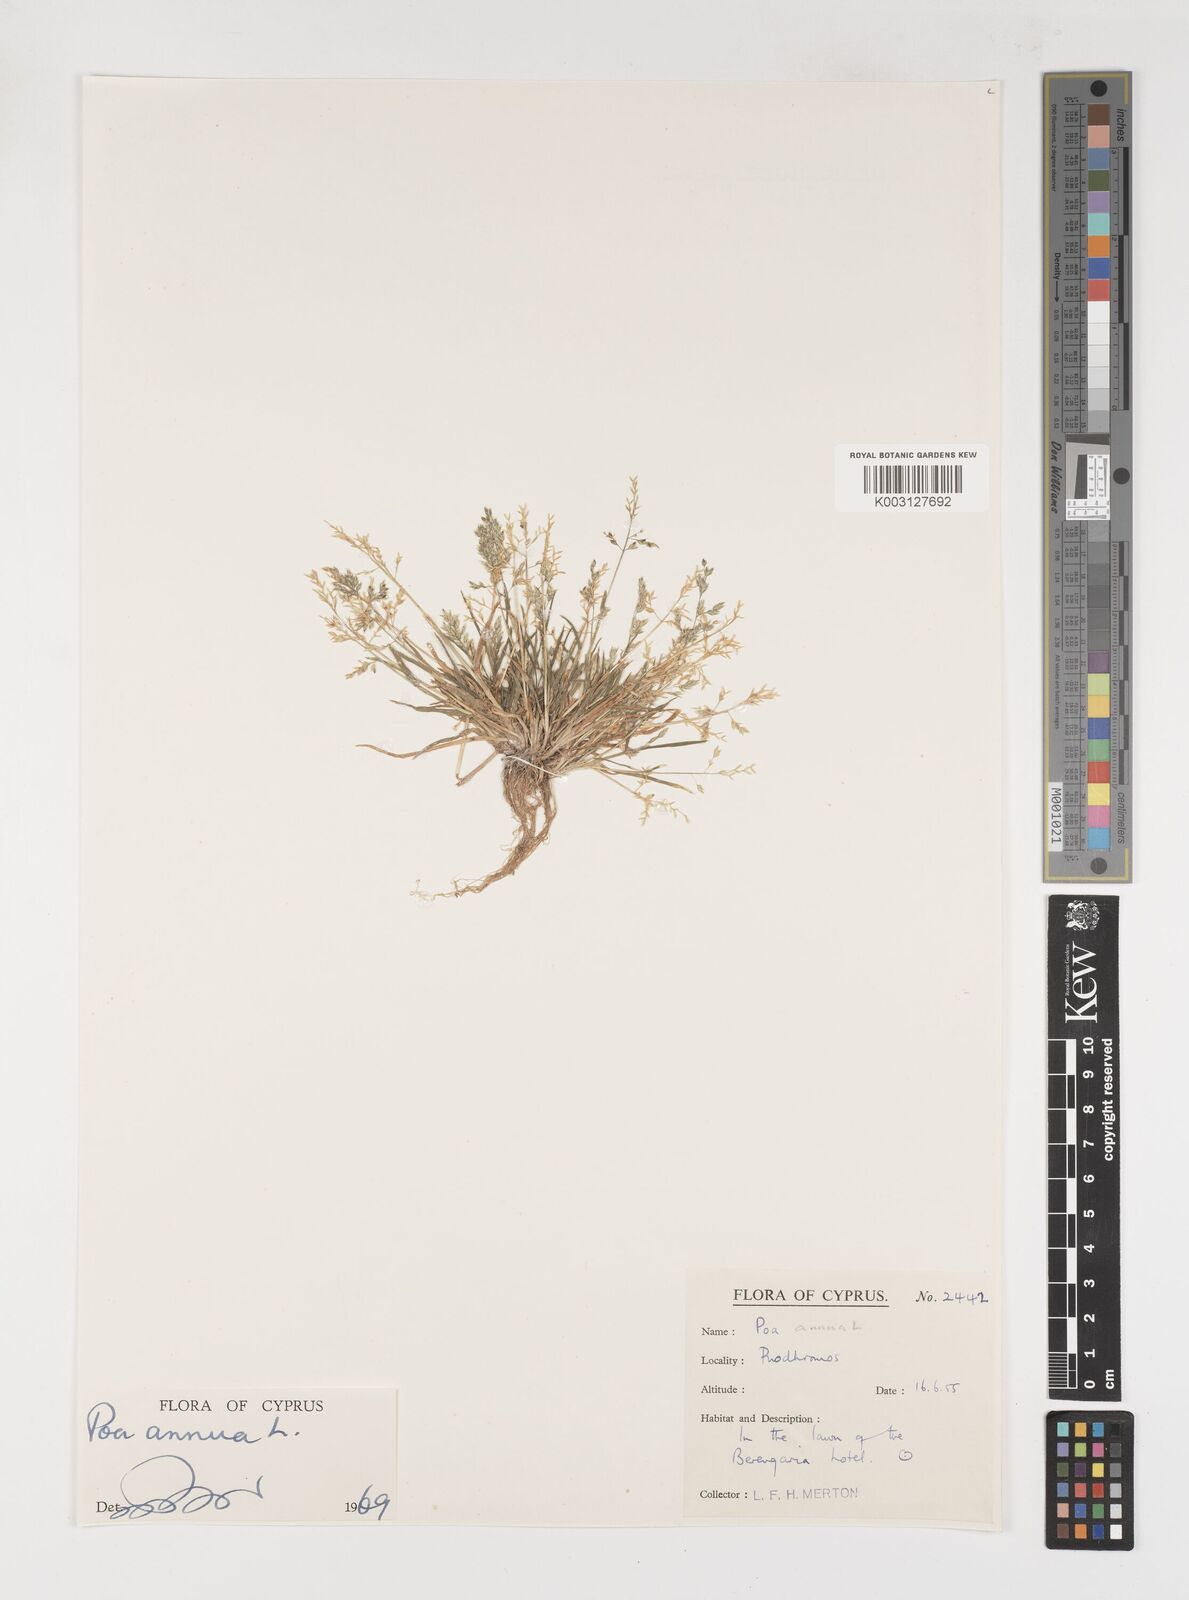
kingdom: Plantae
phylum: Tracheophyta
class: Liliopsida
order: Poales
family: Poaceae
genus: Poa
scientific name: Poa annua
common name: Annual bluegrass
